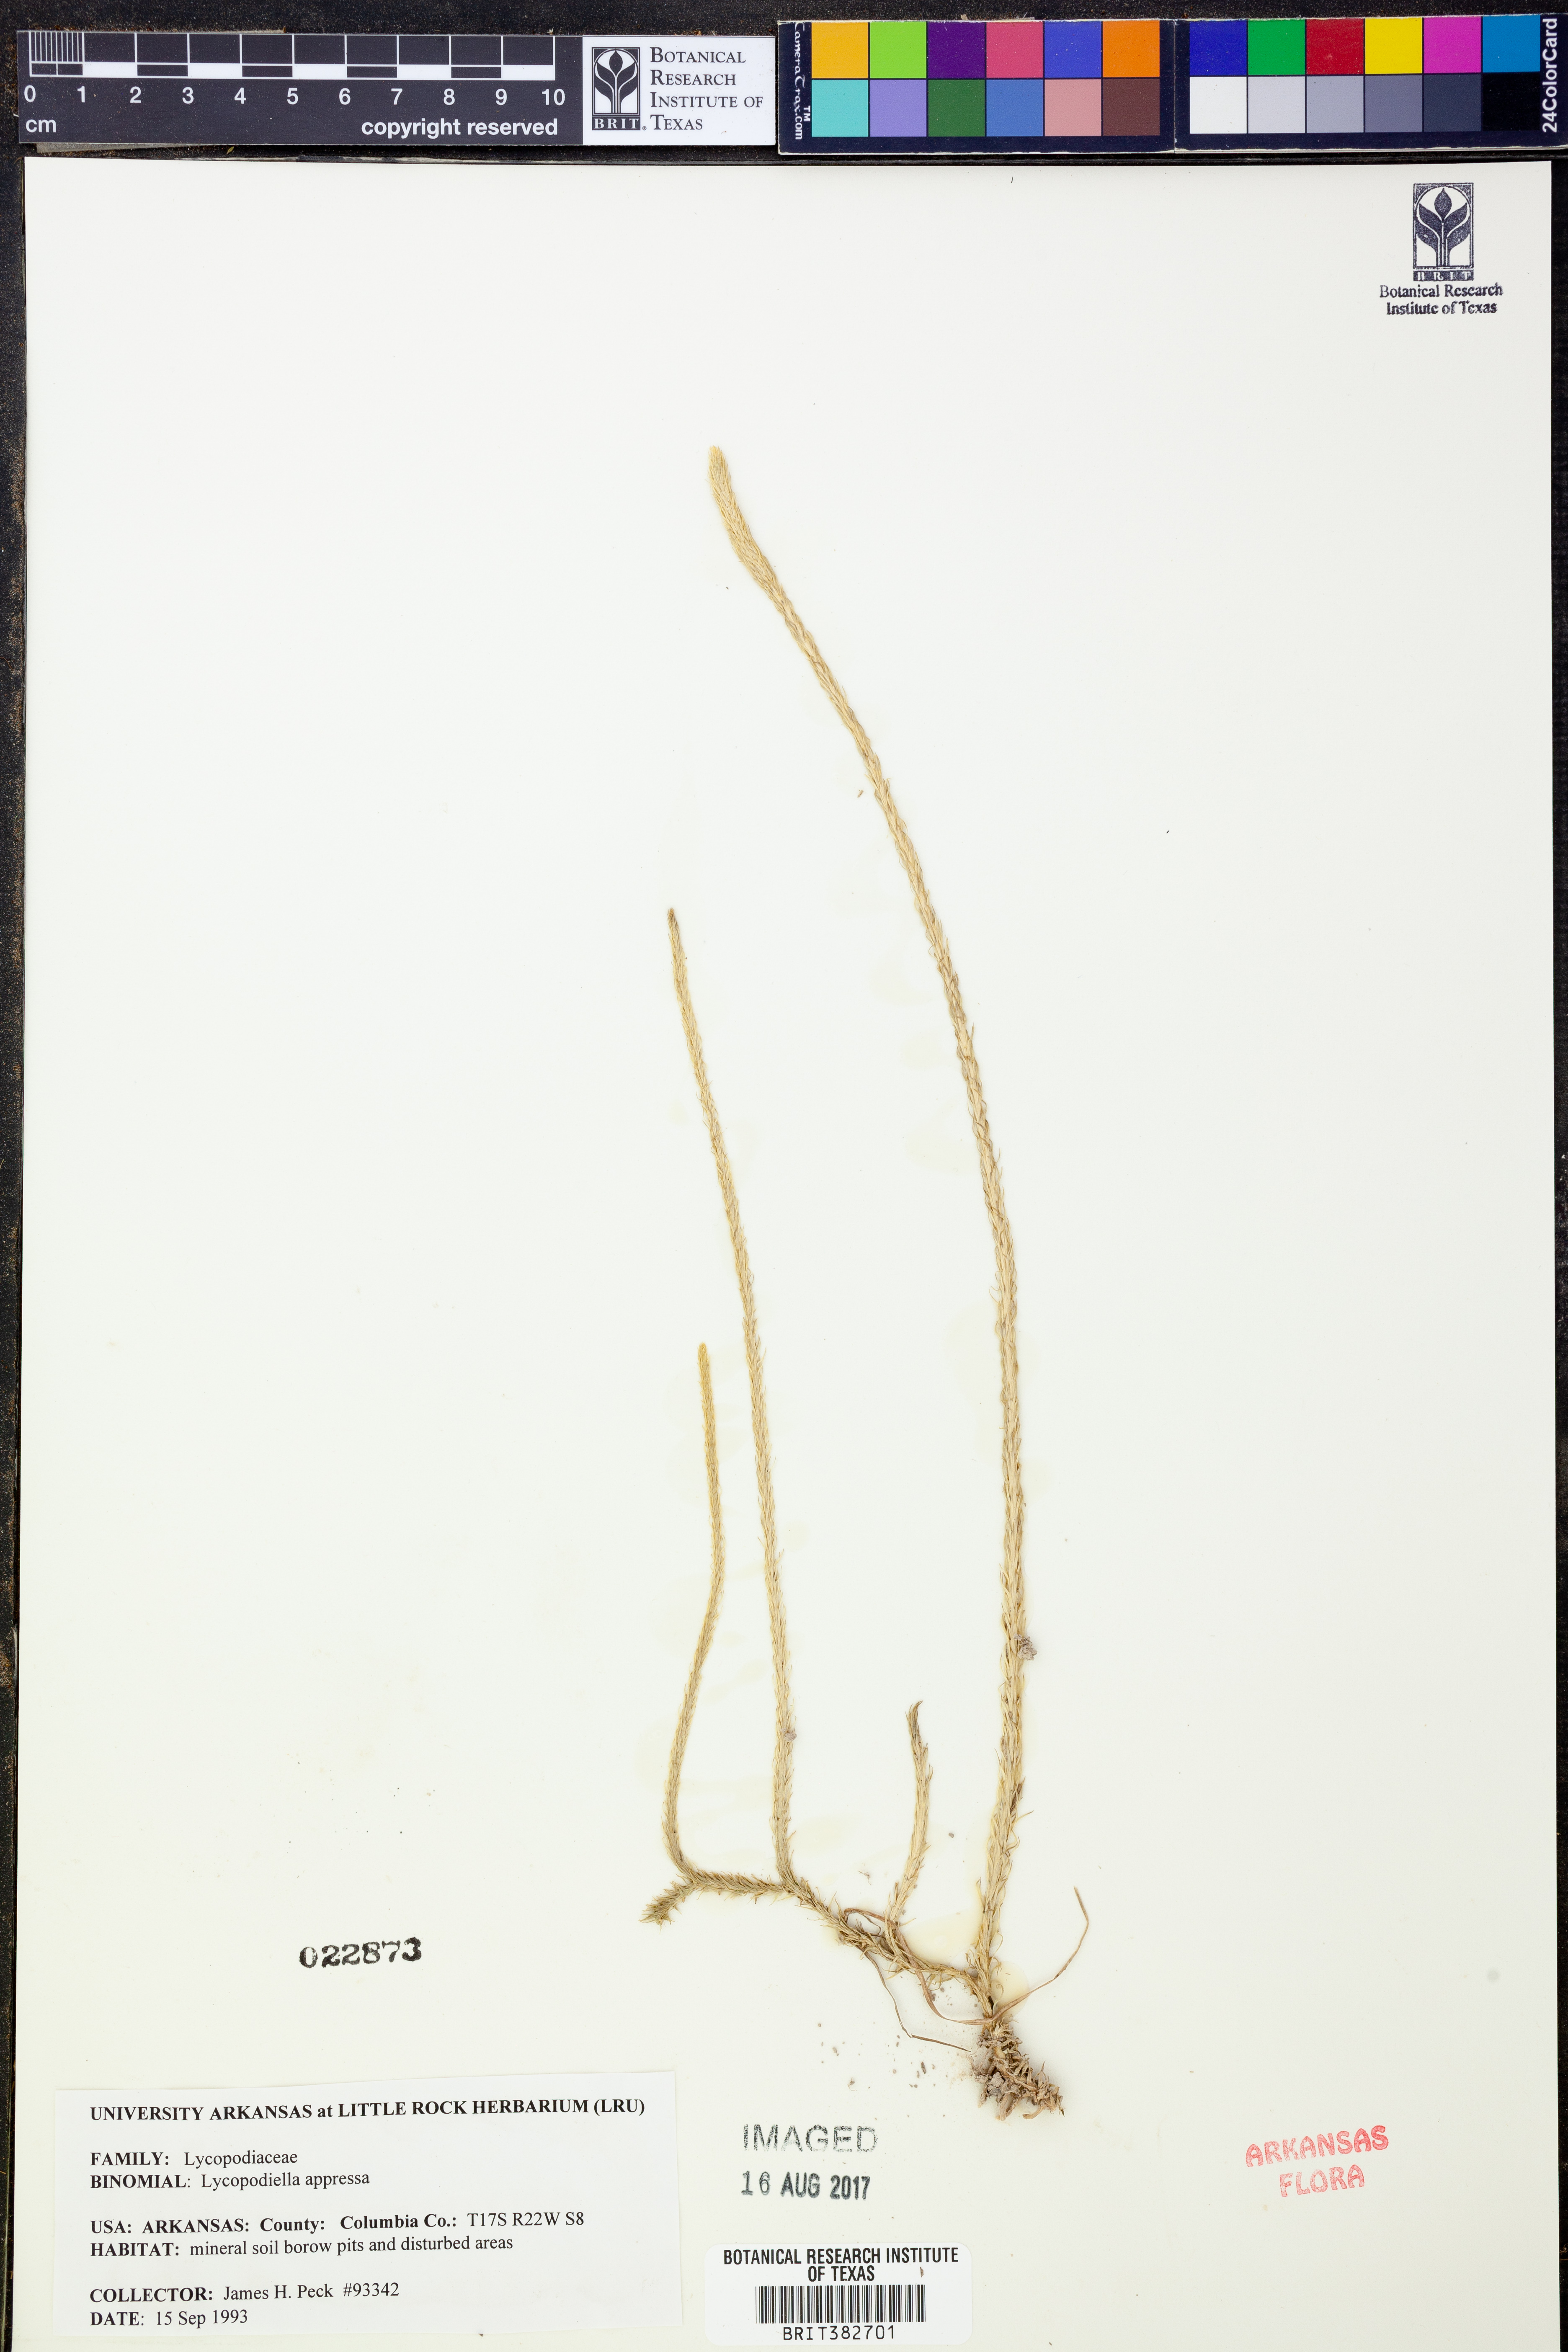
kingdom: Plantae
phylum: Tracheophyta
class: Lycopodiopsida
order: Lycopodiales
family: Lycopodiaceae
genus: Lycopodiella
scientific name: Lycopodiella appressa
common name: Appressed bog clubmoss
